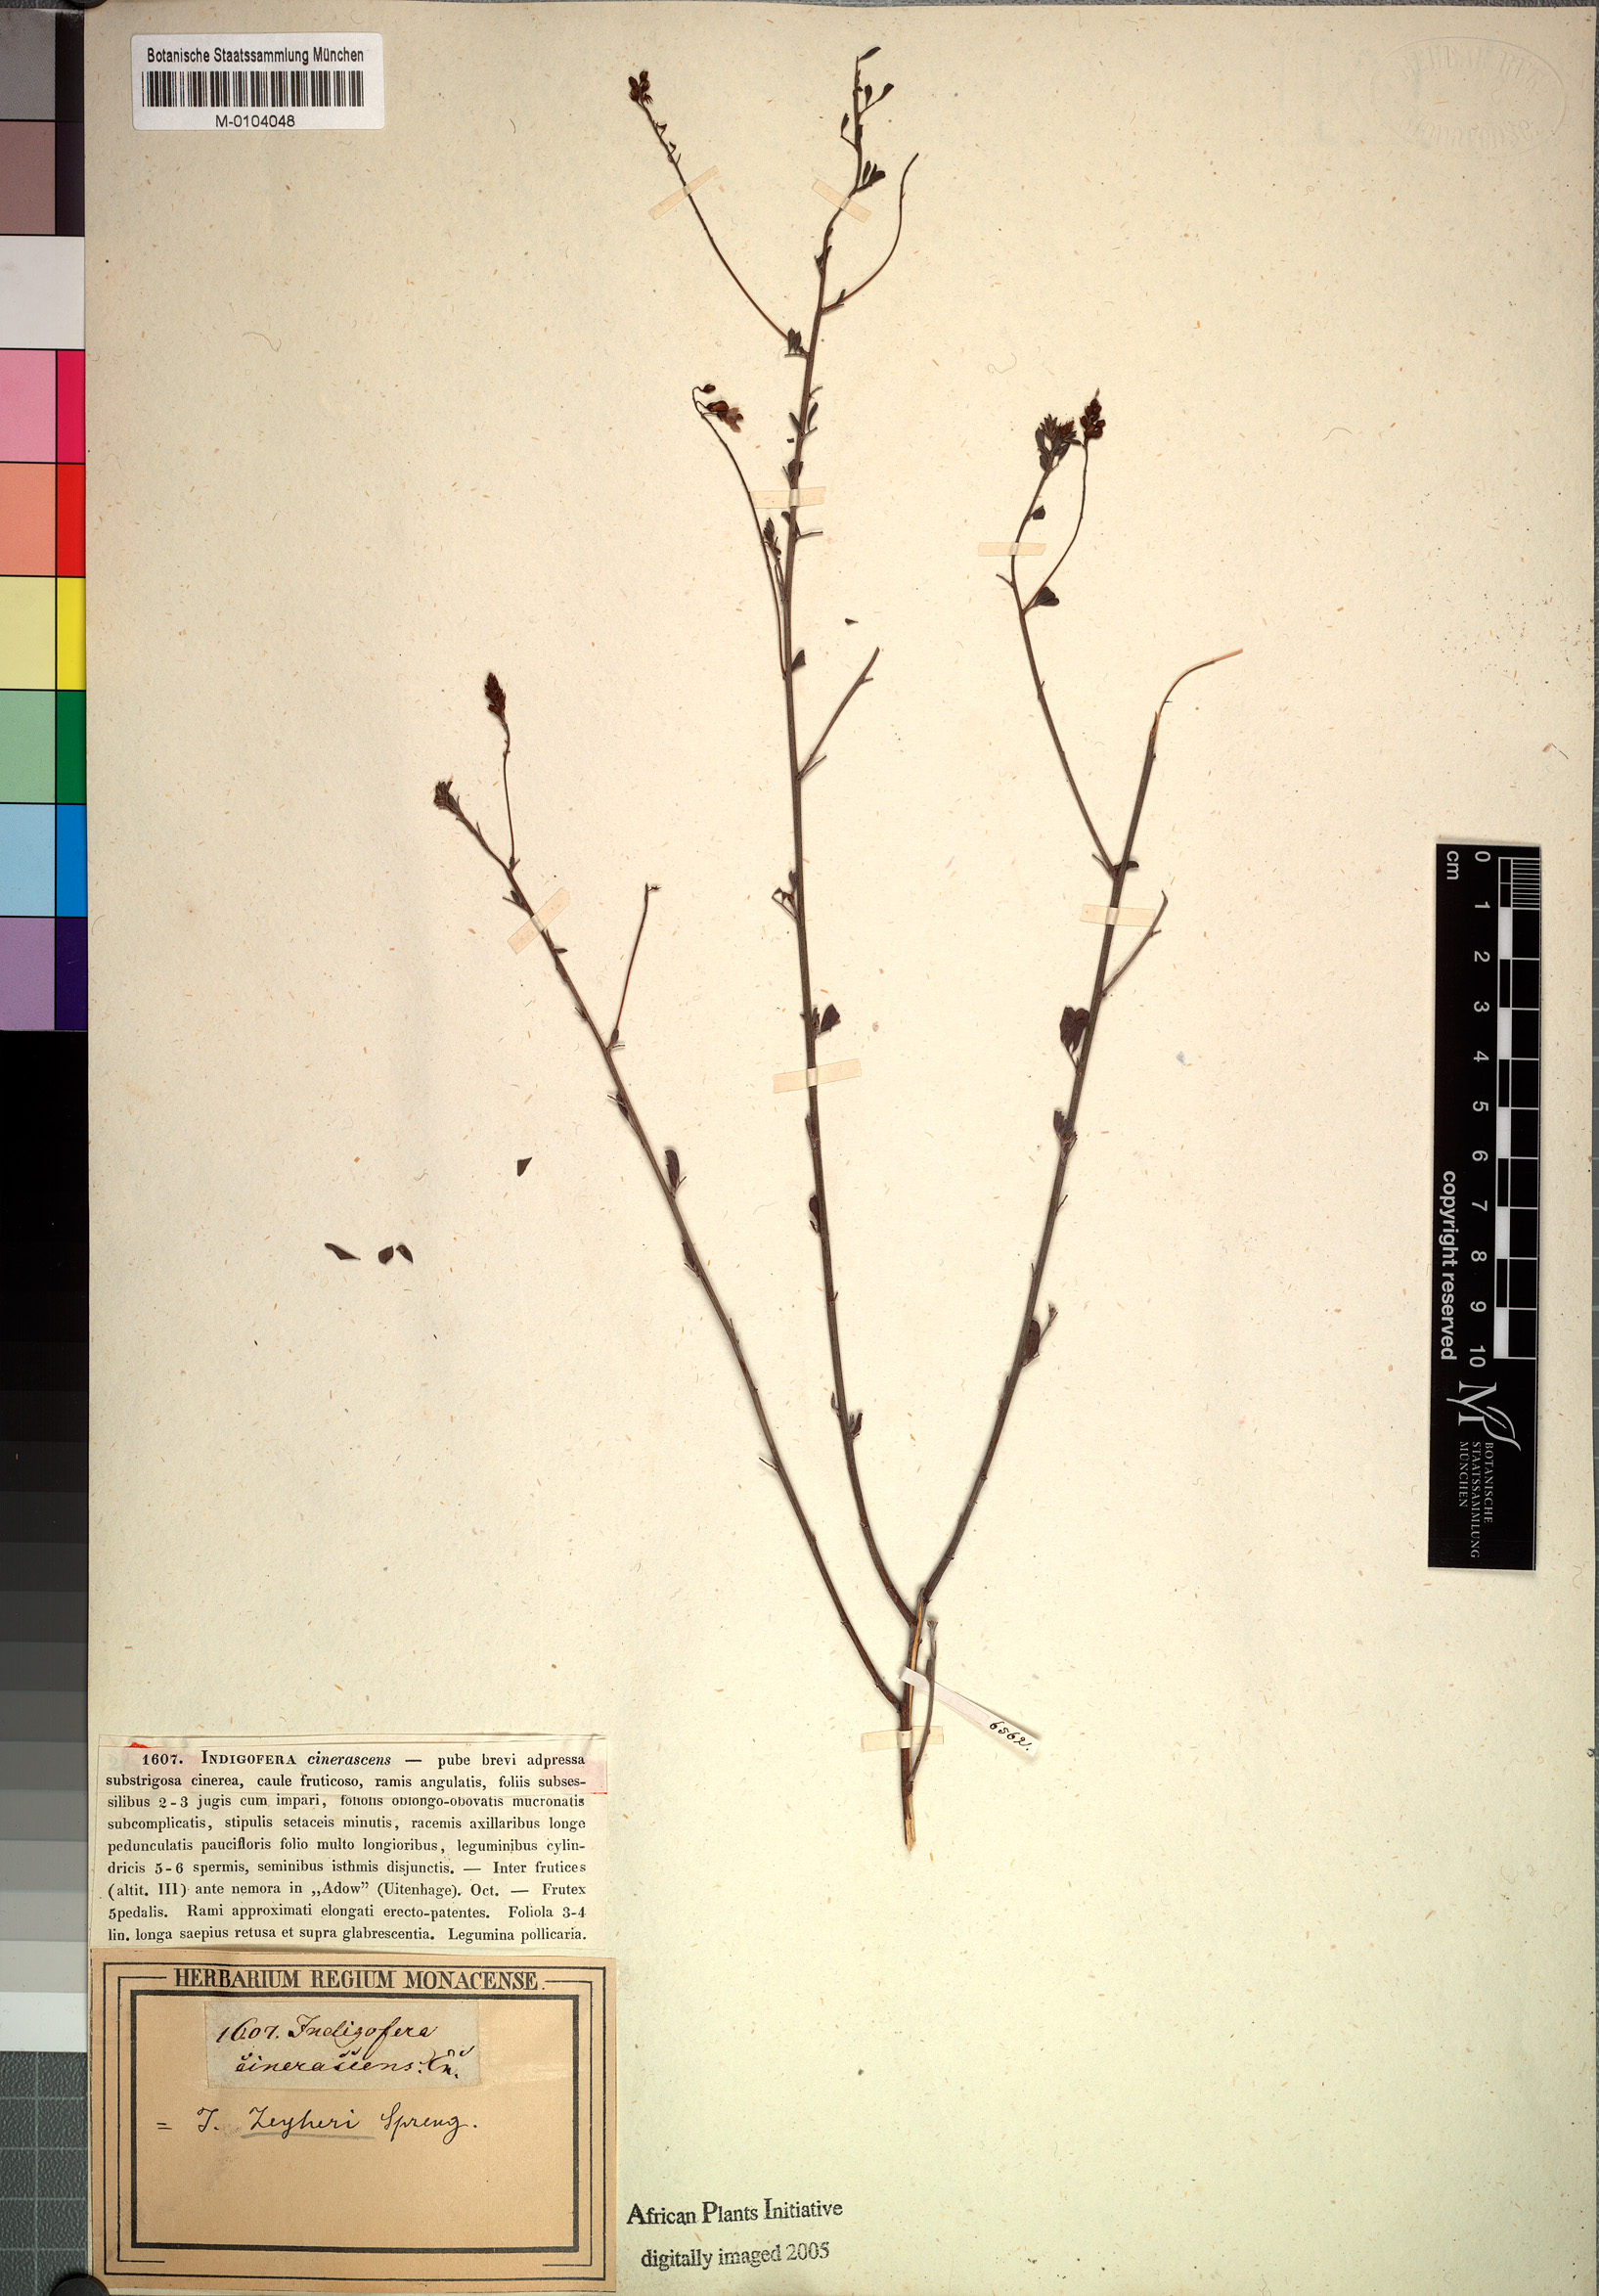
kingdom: Plantae
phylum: Tracheophyta
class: Magnoliopsida
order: Fabales
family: Fabaceae
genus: Indigofera
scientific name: Indigofera punctata
